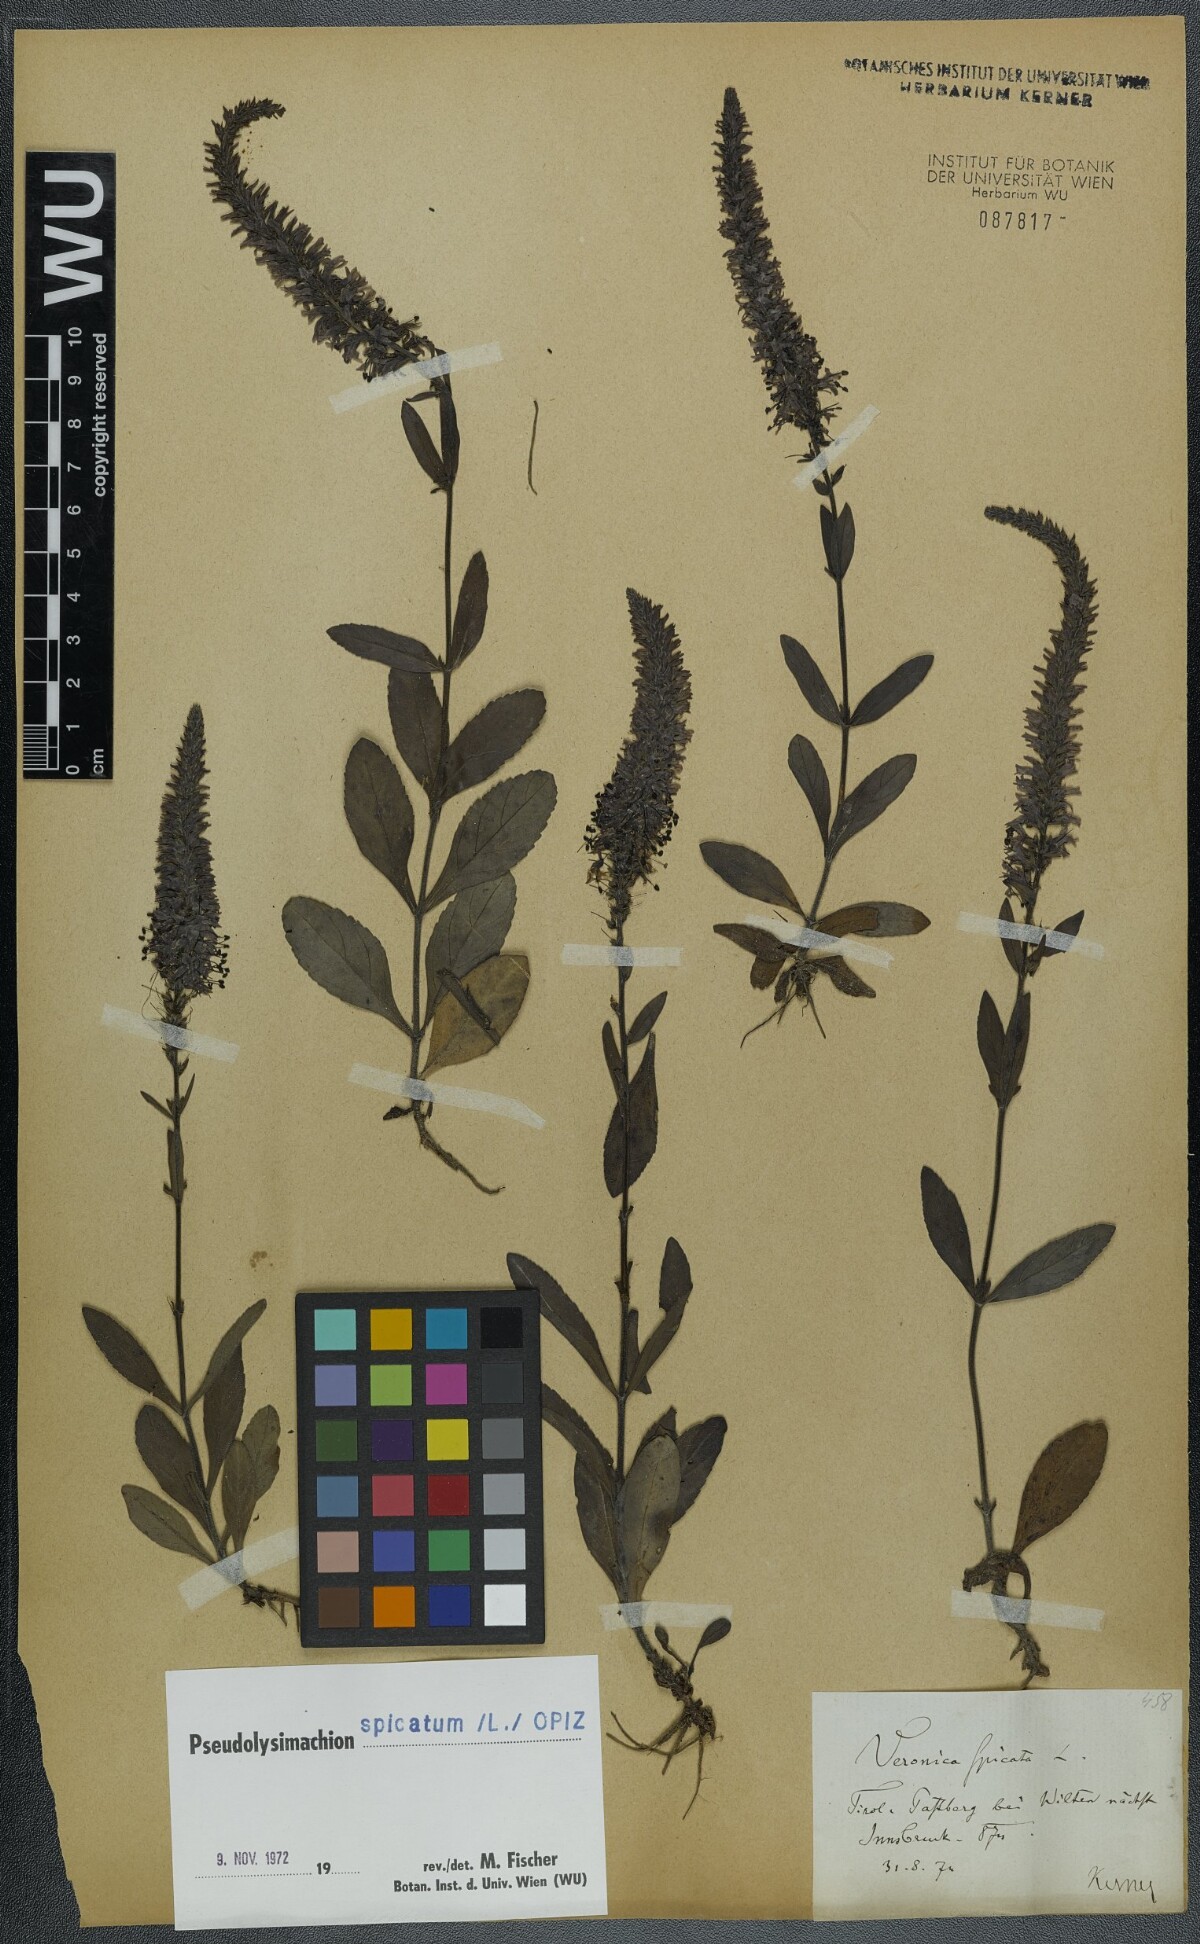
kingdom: Plantae
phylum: Tracheophyta
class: Magnoliopsida
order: Lamiales
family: Plantaginaceae
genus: Veronica
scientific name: Veronica spicata
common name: Spiked speedwell
